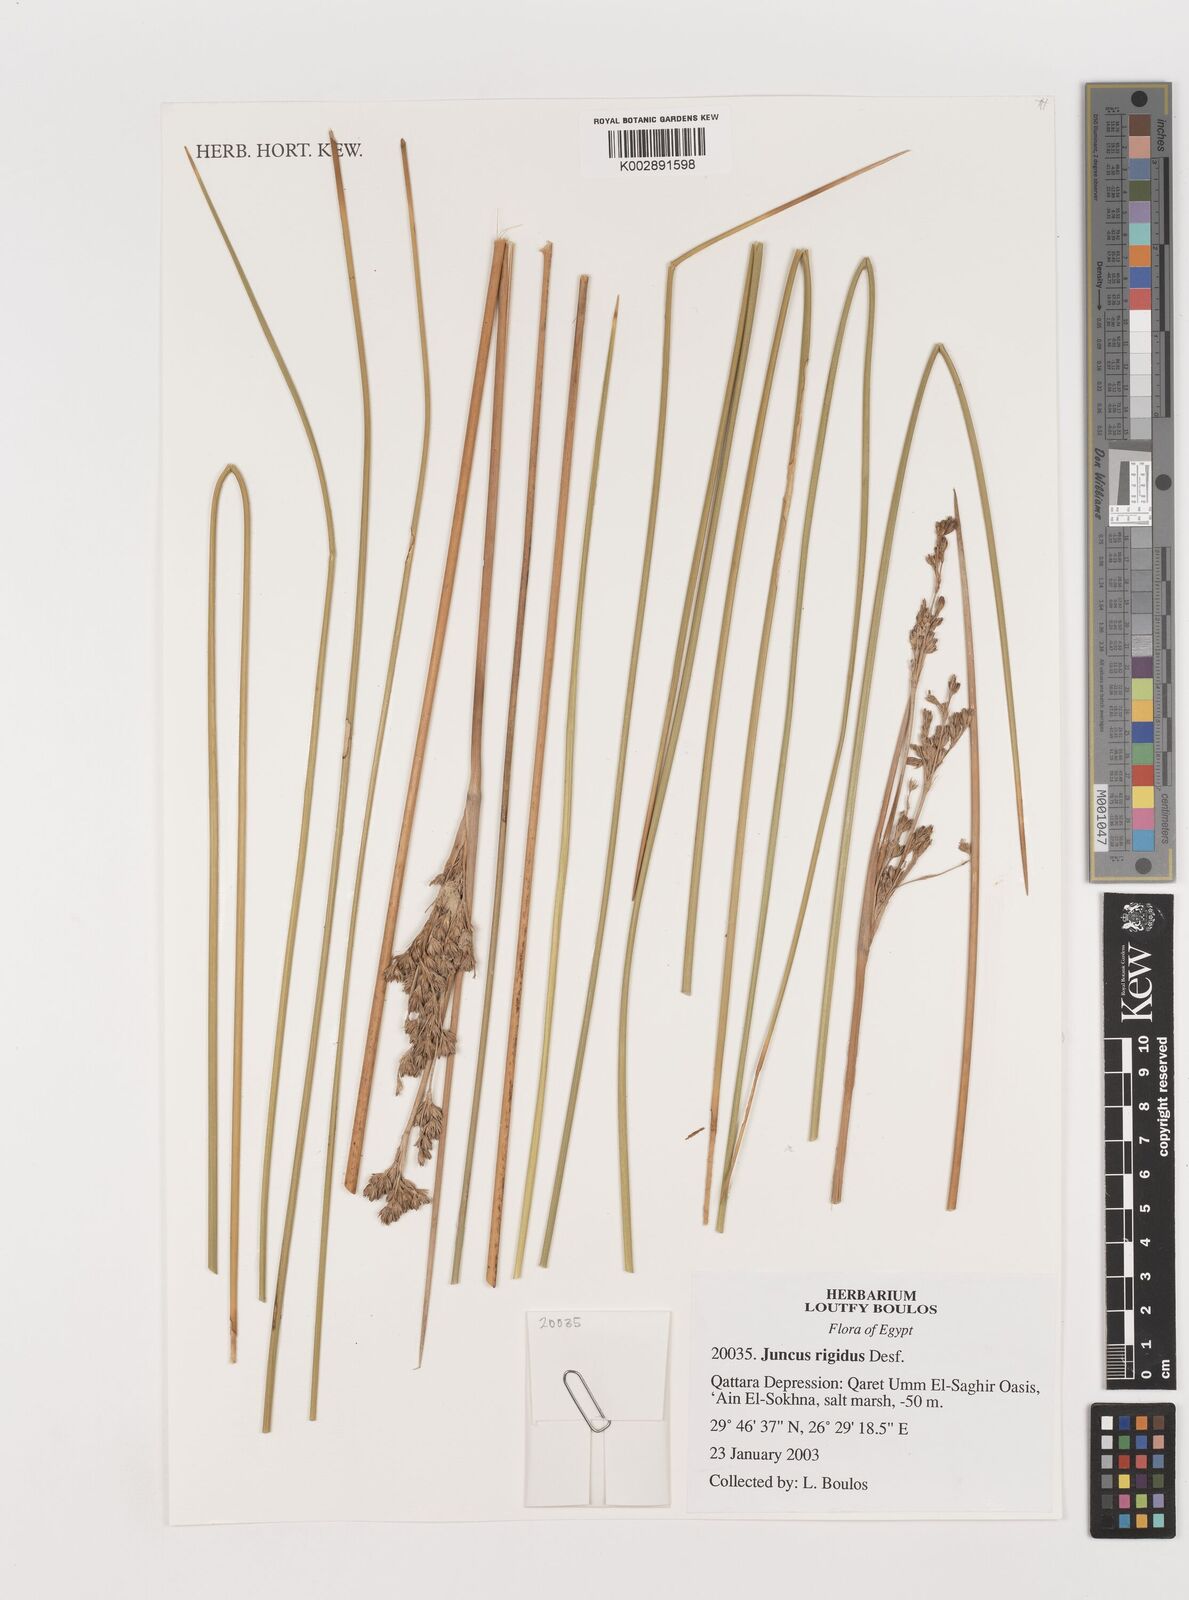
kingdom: Plantae
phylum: Tracheophyta
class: Liliopsida
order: Poales
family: Juncaceae
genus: Juncus
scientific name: Juncus rigidus
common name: Hard sea rush
